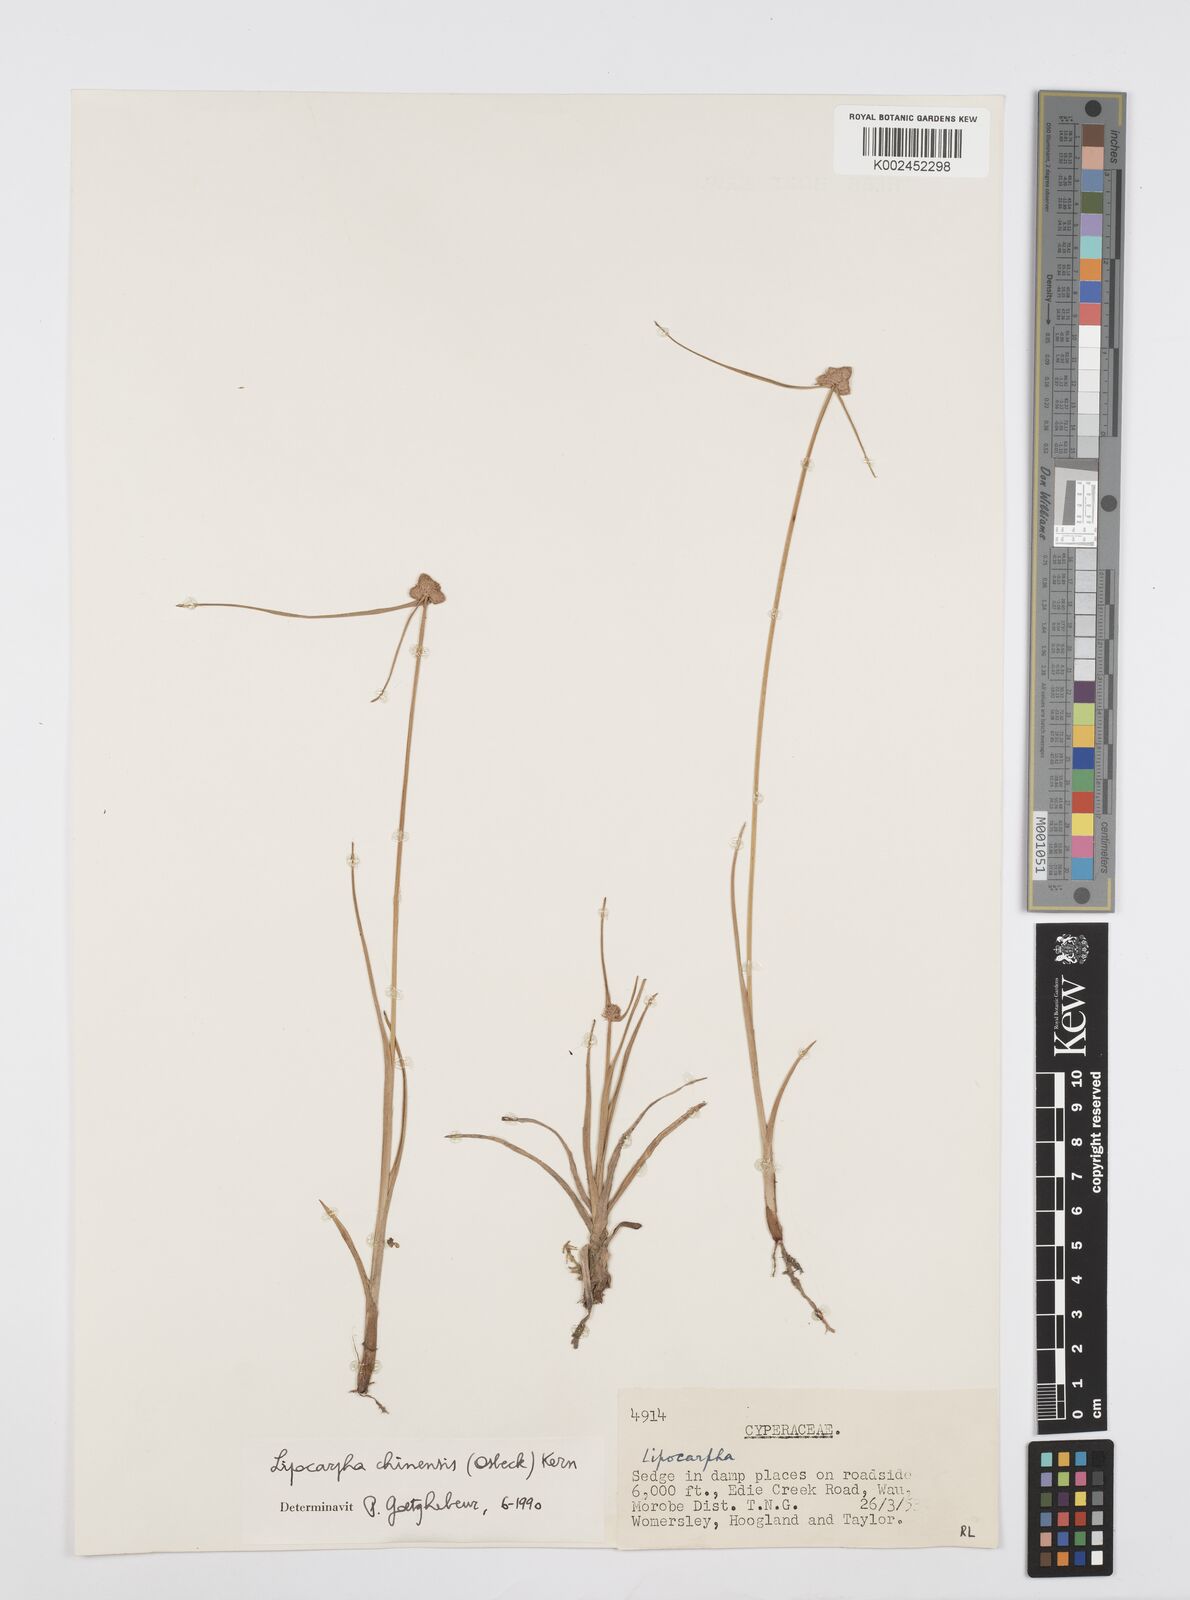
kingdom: Plantae
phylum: Tracheophyta
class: Liliopsida
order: Poales
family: Cyperaceae
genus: Cyperus
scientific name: Cyperus albescens
